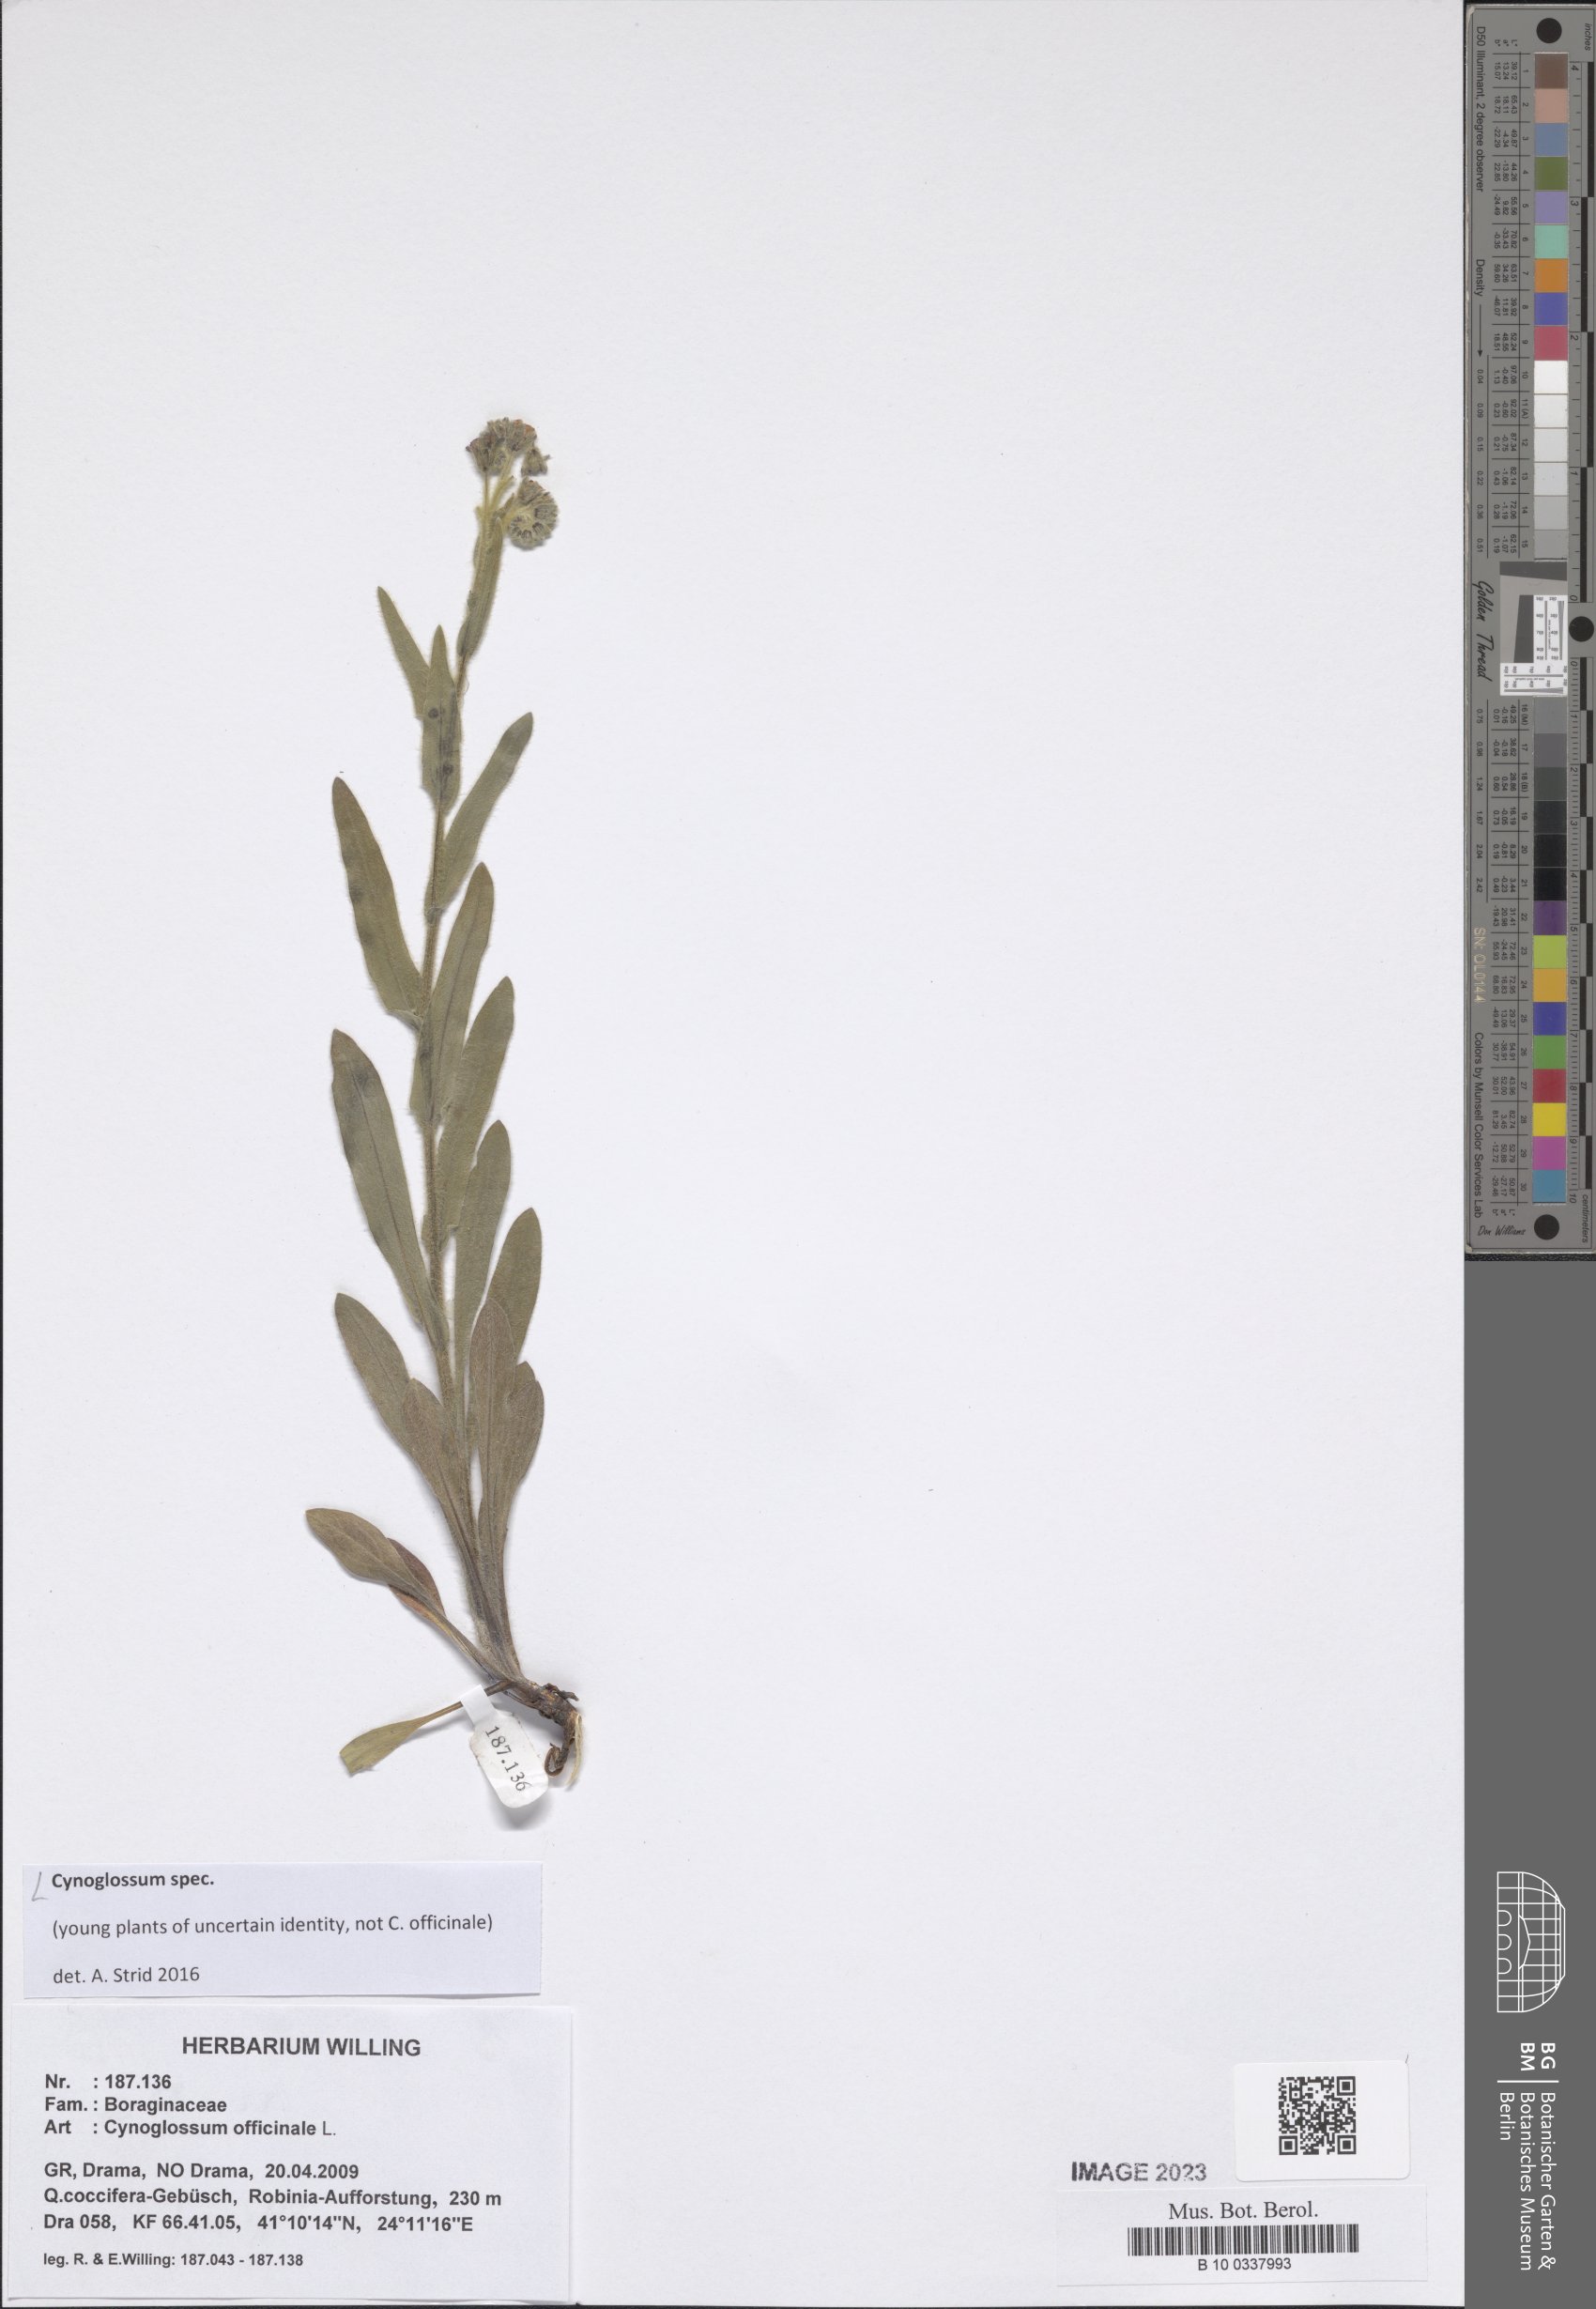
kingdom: Plantae
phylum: Tracheophyta
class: Magnoliopsida
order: Boraginales
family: Boraginaceae
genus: Cynoglossum
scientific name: Cynoglossum
